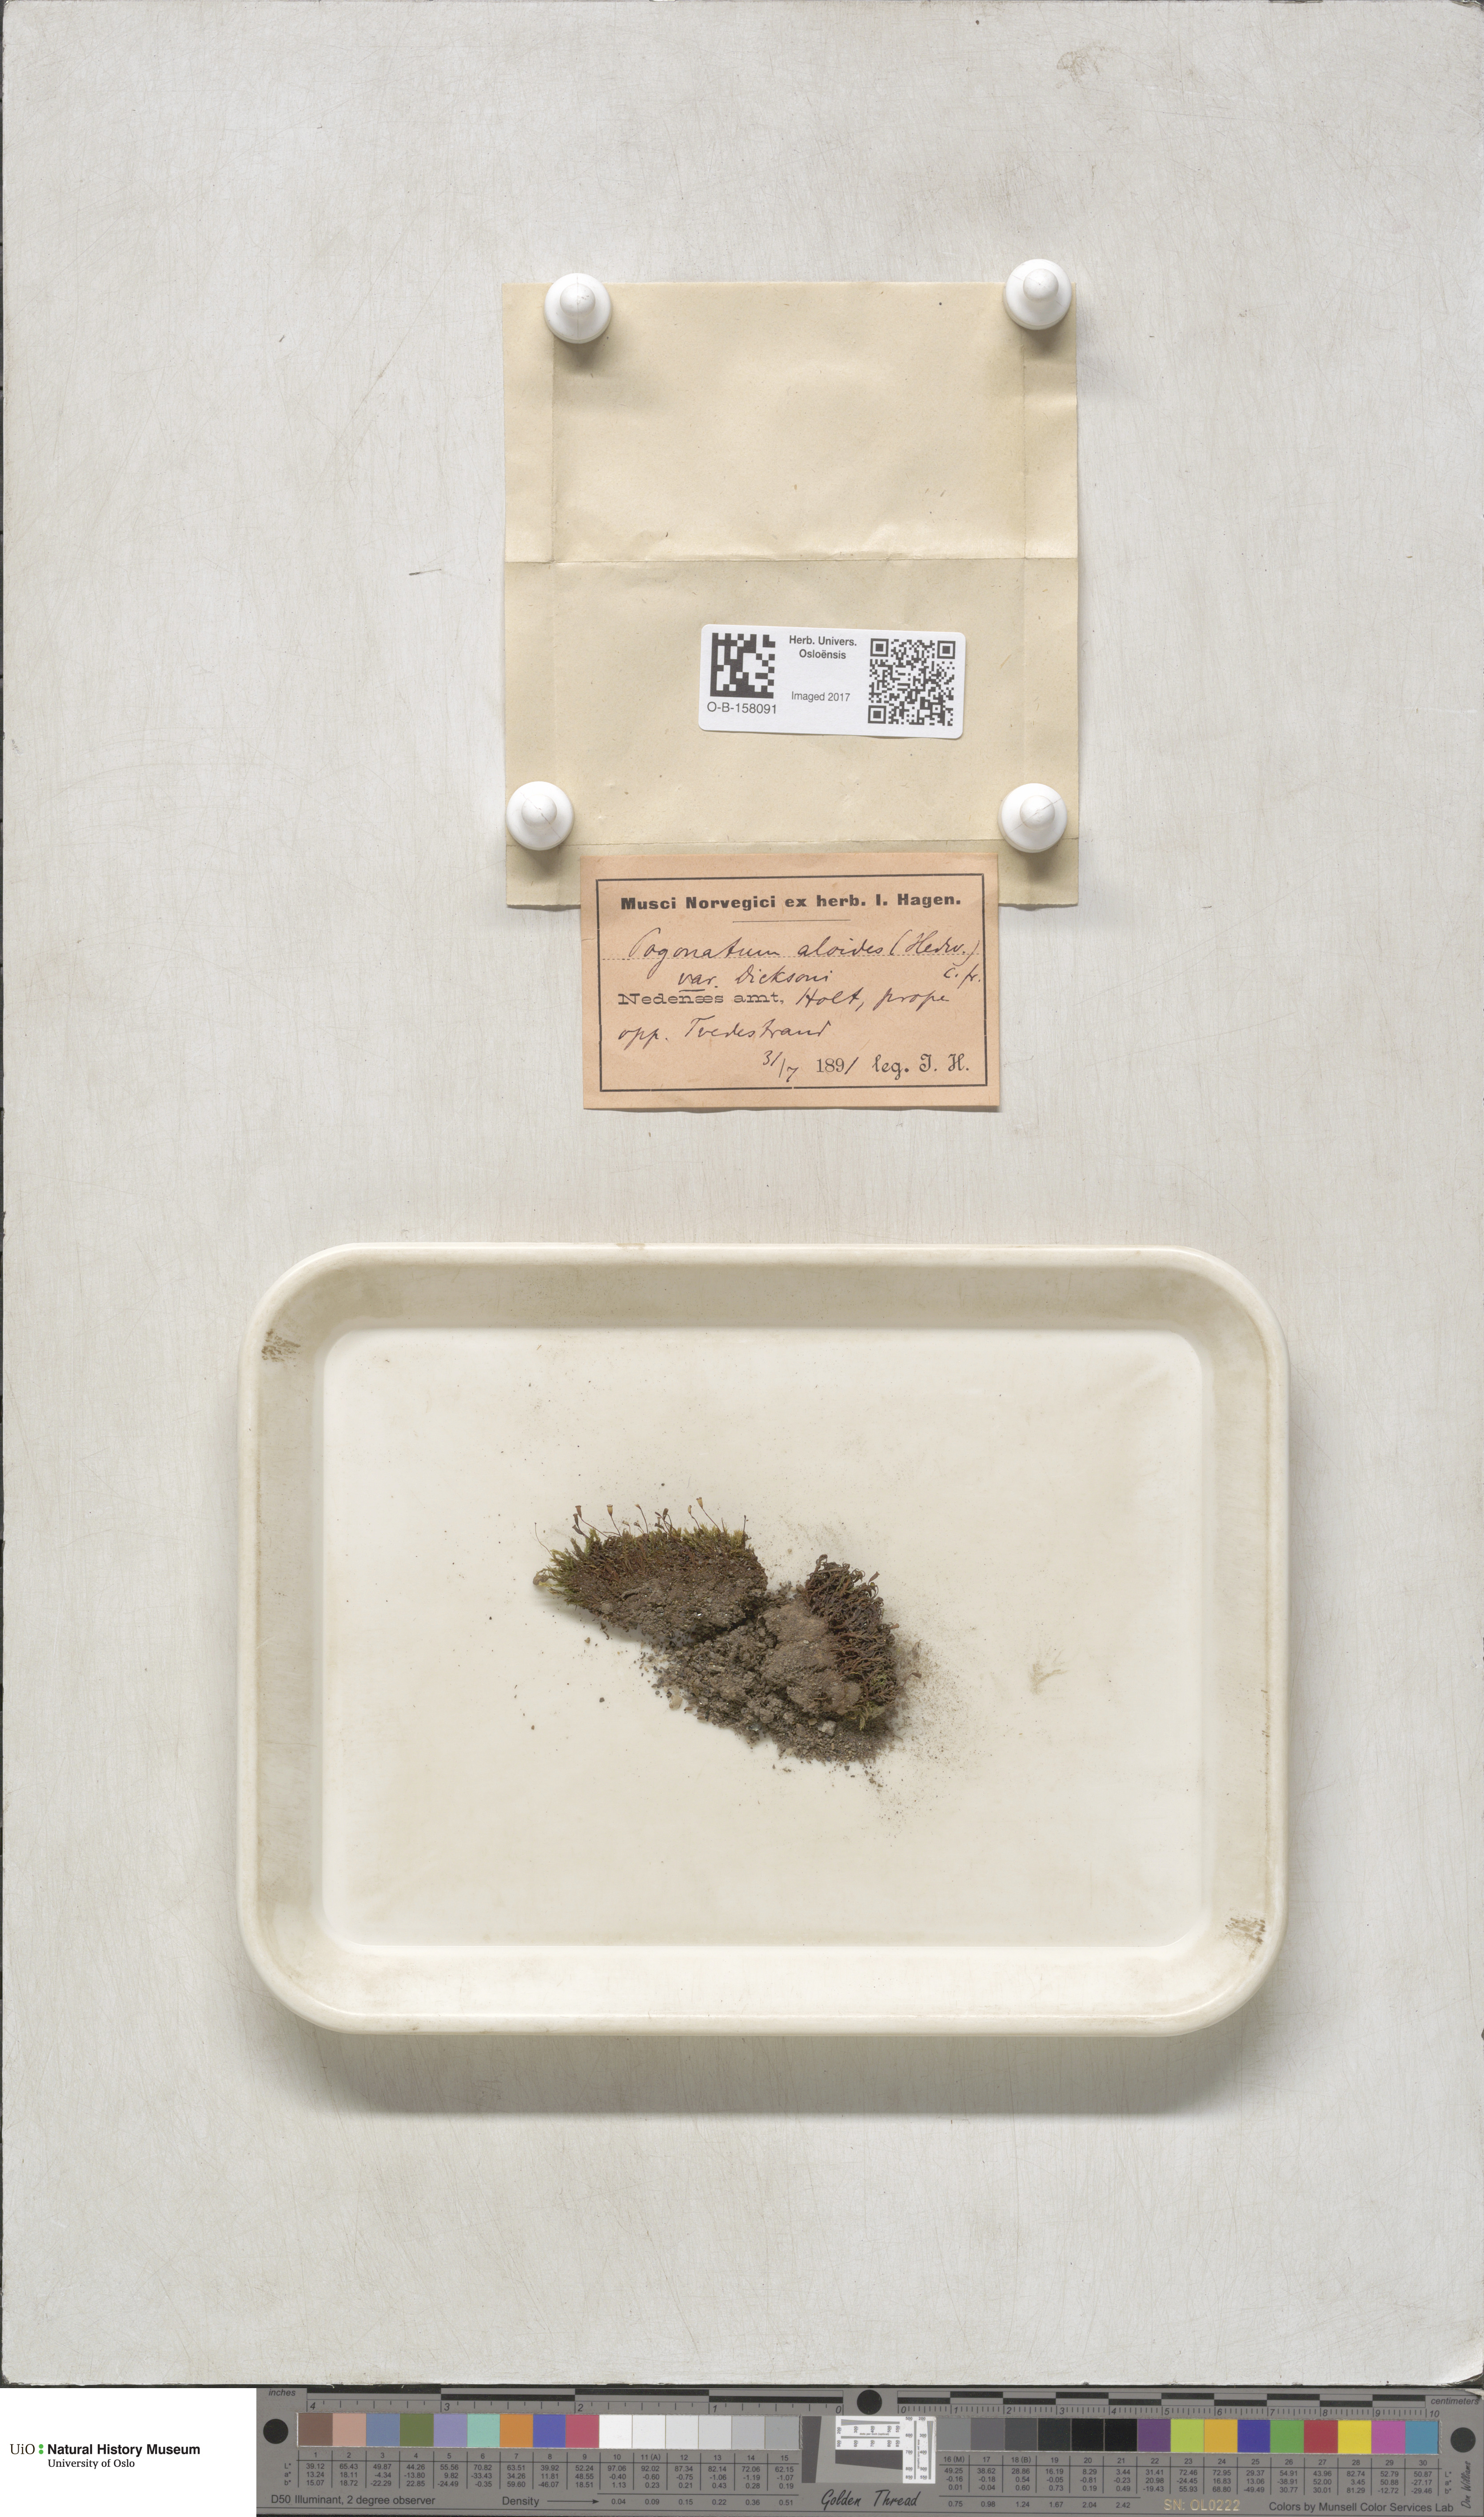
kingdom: Plantae
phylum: Bryophyta
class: Polytrichopsida
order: Polytrichales
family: Polytrichaceae
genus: Pogonatum
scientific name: Pogonatum aloides
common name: Aloe haircap
